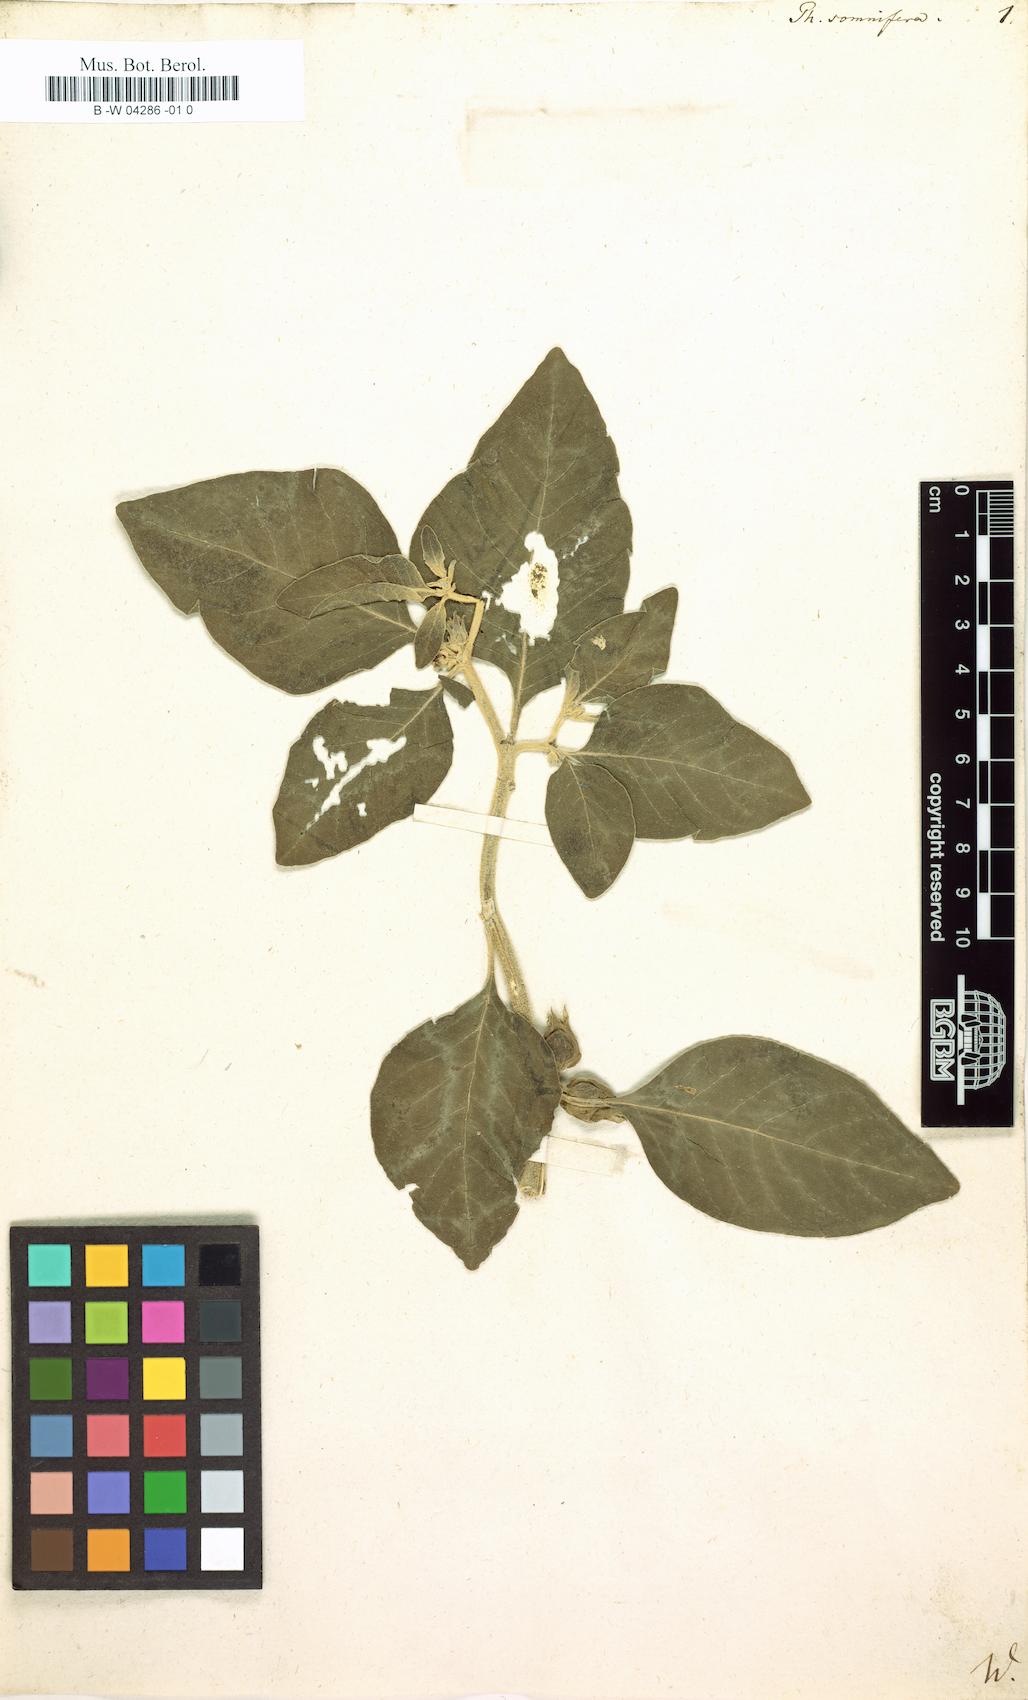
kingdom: Plantae
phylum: Tracheophyta
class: Magnoliopsida
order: Solanales
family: Solanaceae
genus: Withania
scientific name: Withania somnifera
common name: Winter-cherry
